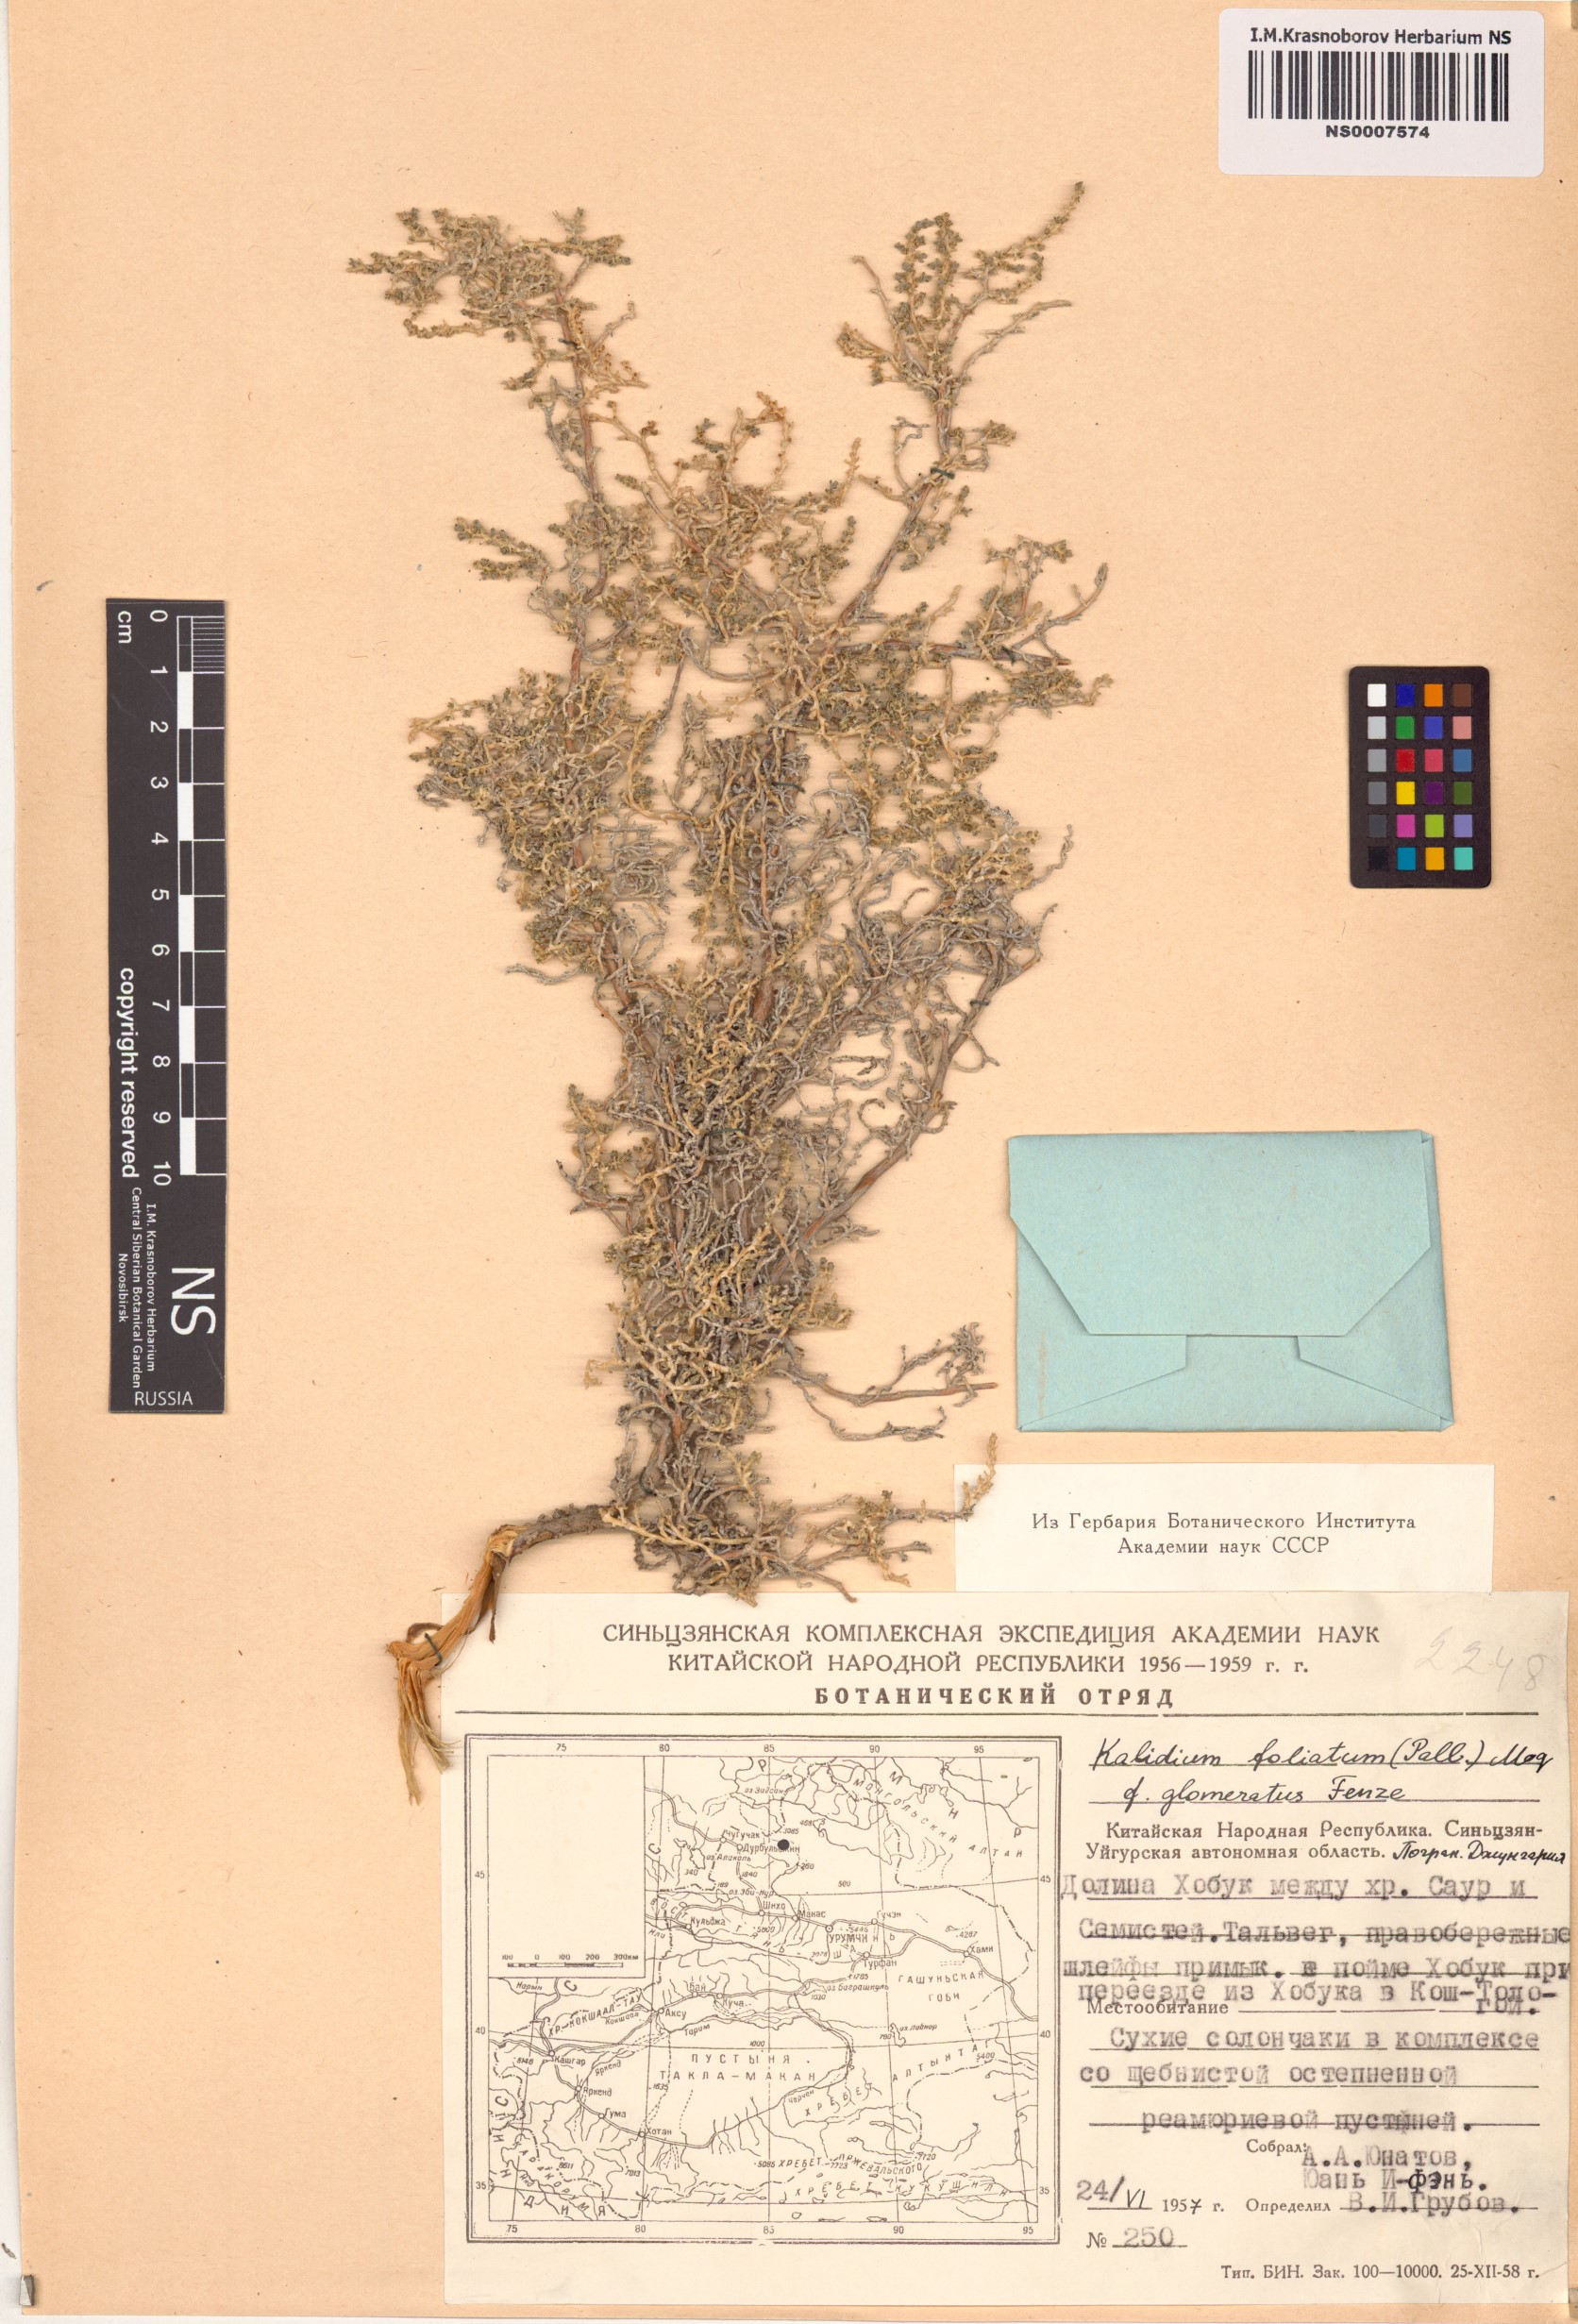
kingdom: Plantae
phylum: Tracheophyta
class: Magnoliopsida
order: Caryophyllales
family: Amaranthaceae
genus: Kalidium
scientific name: Kalidium foliatum
